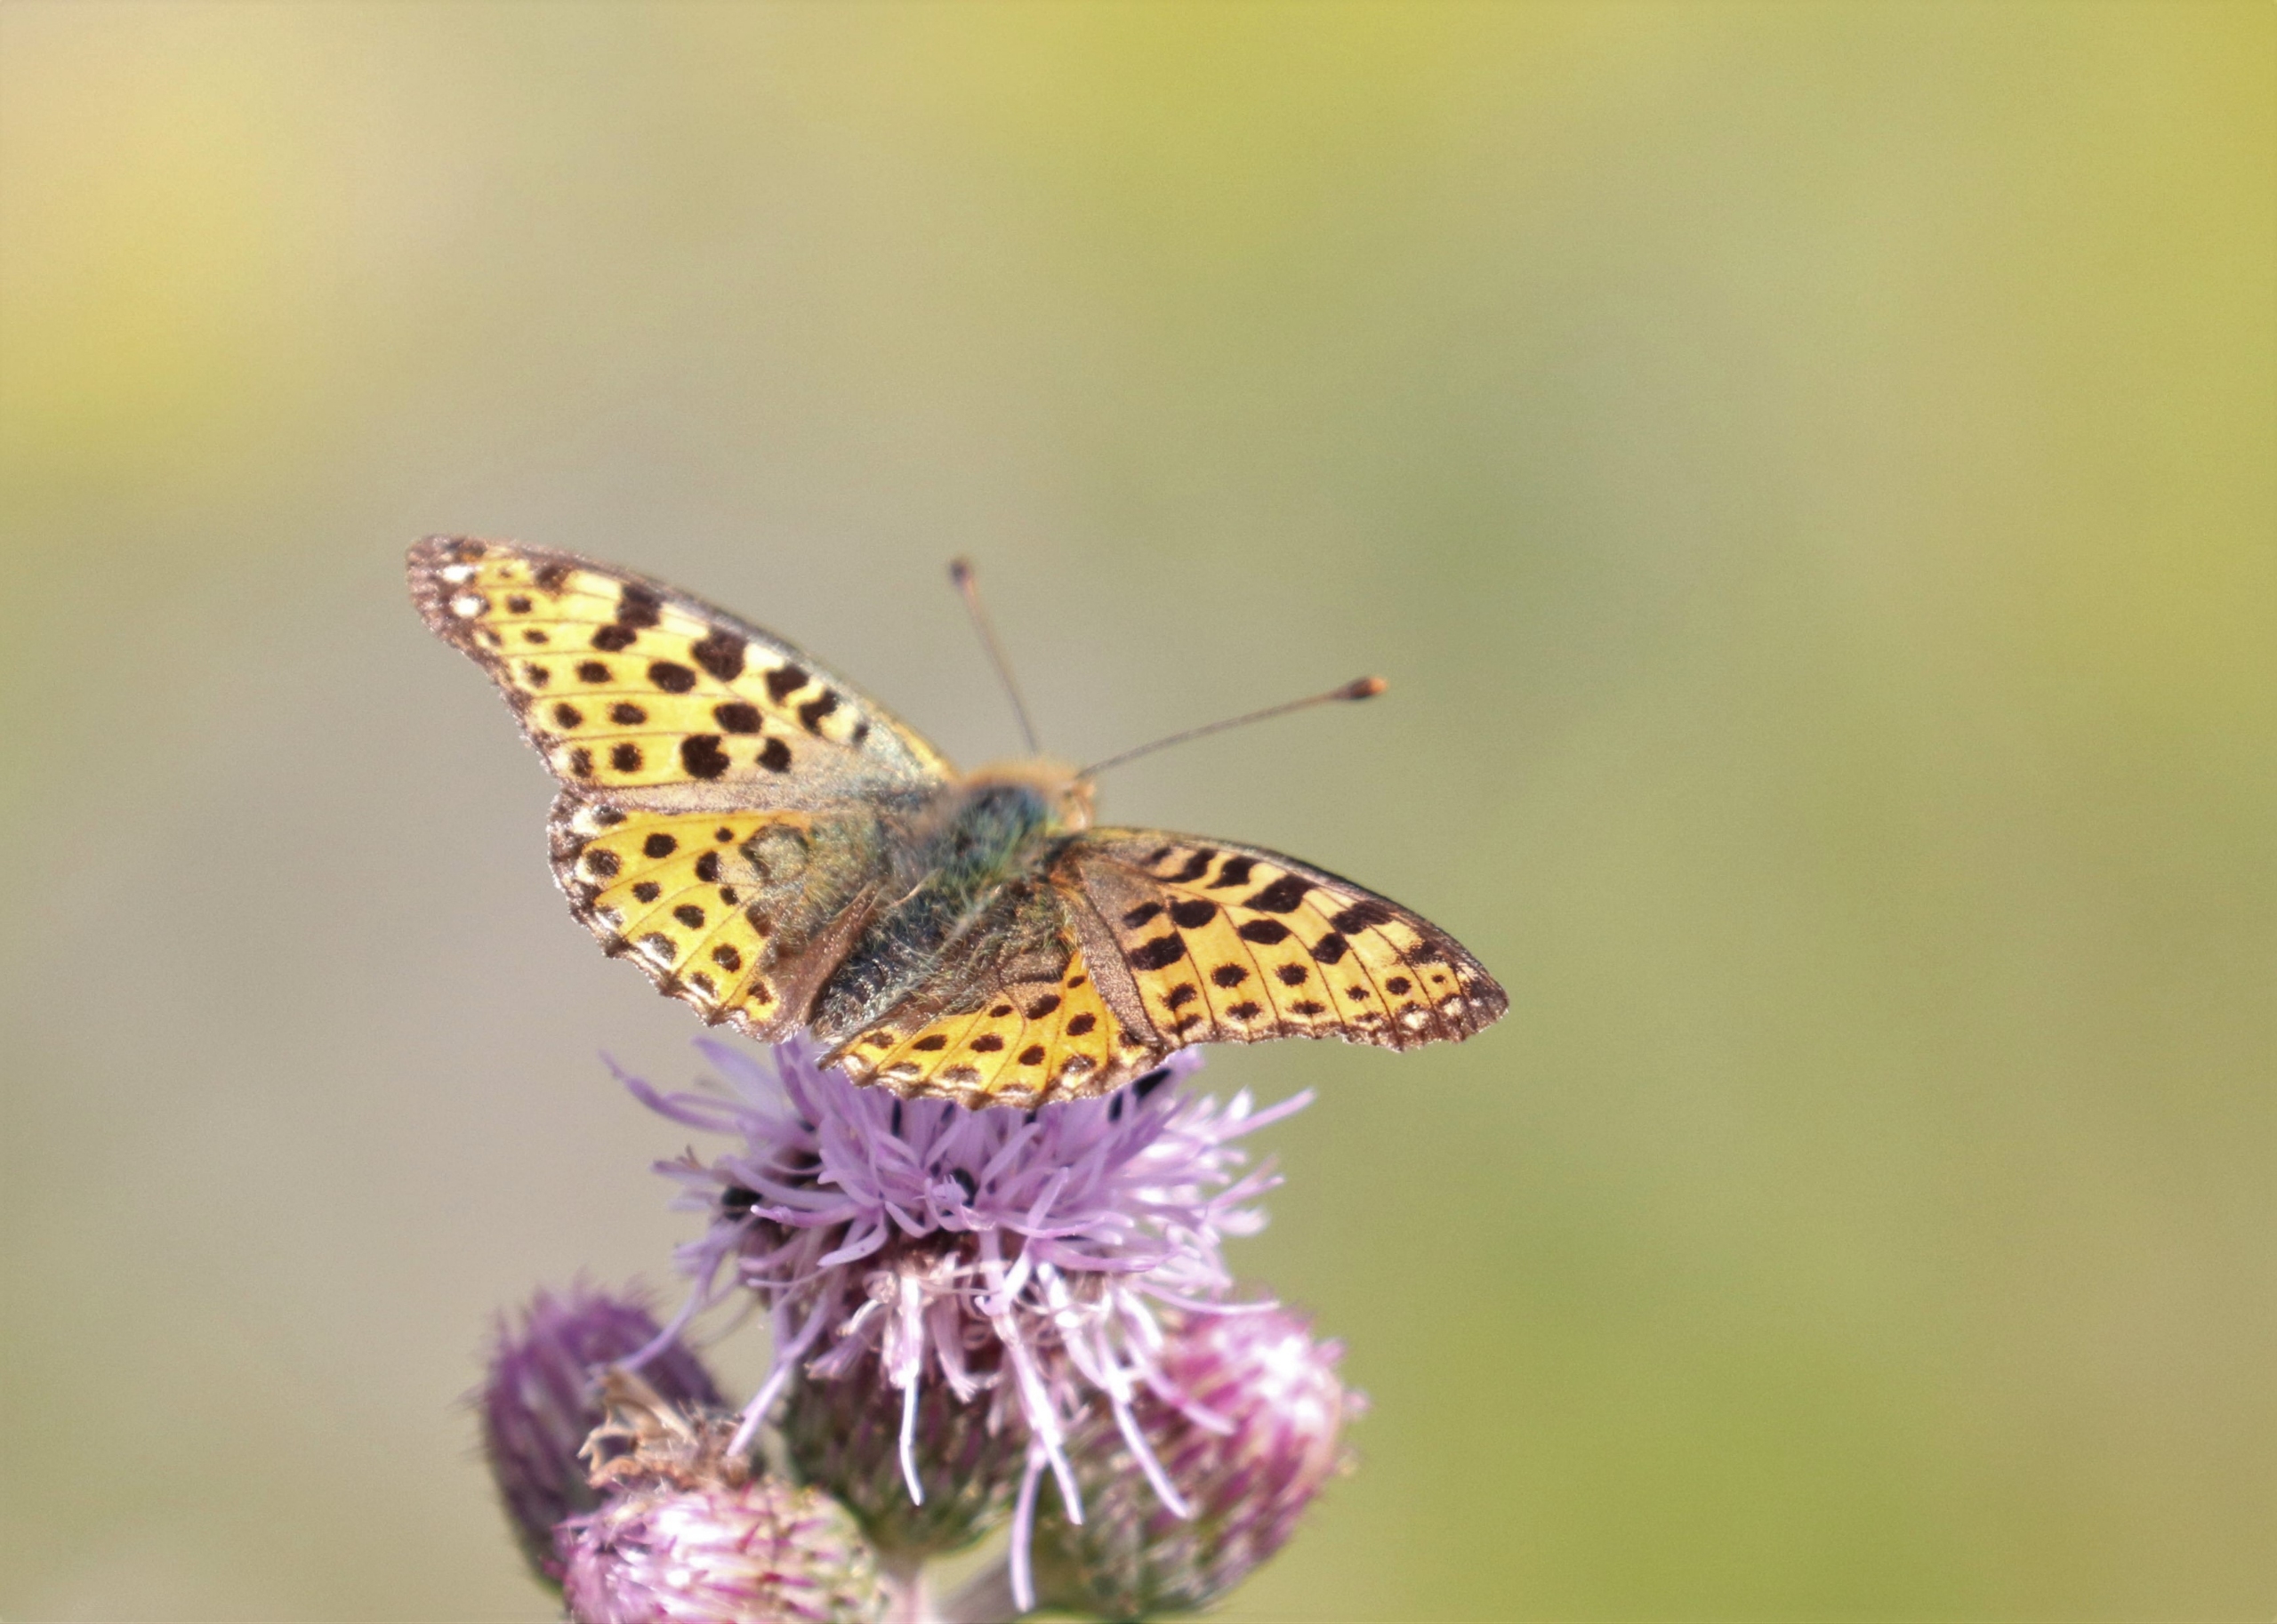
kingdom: Animalia
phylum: Arthropoda
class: Insecta
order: Lepidoptera
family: Nymphalidae
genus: Issoria
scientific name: Issoria lathonia
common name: Storplettet perlemorsommerfugl
